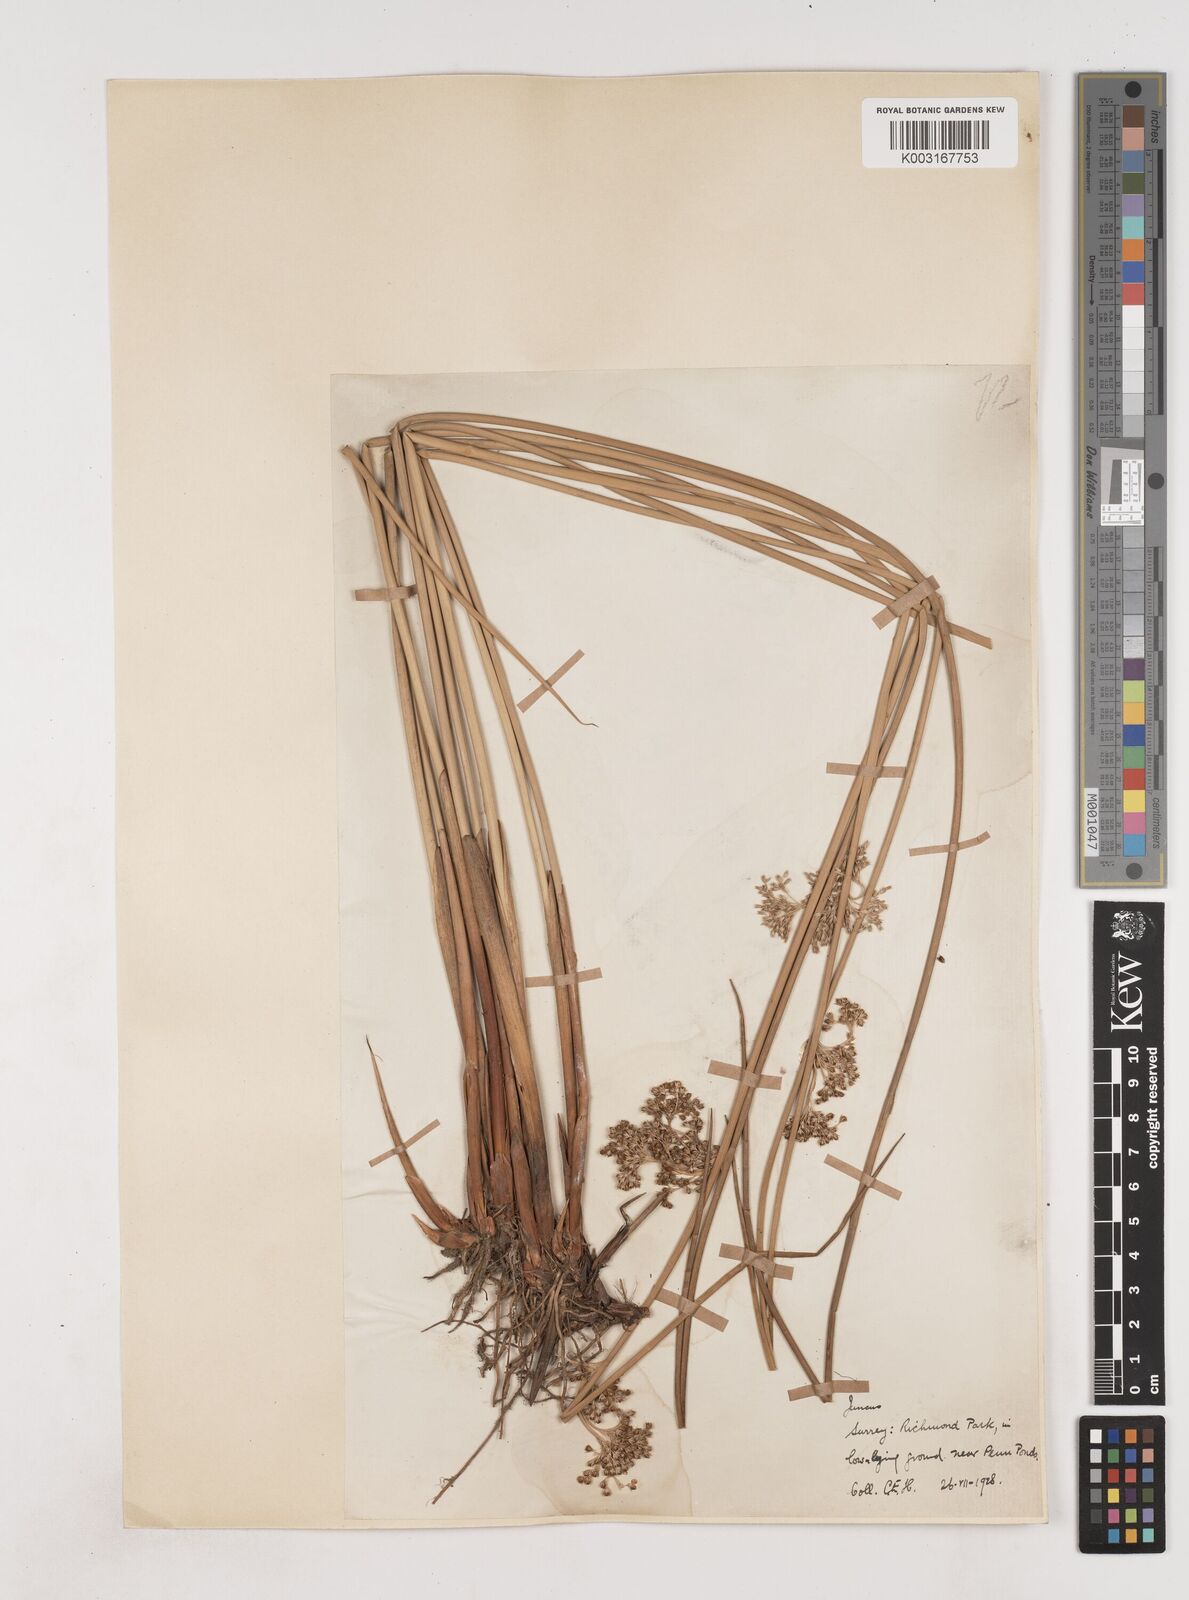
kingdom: Plantae
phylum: Tracheophyta
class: Liliopsida
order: Poales
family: Juncaceae
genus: Juncus
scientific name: Juncus effusus
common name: Soft rush
